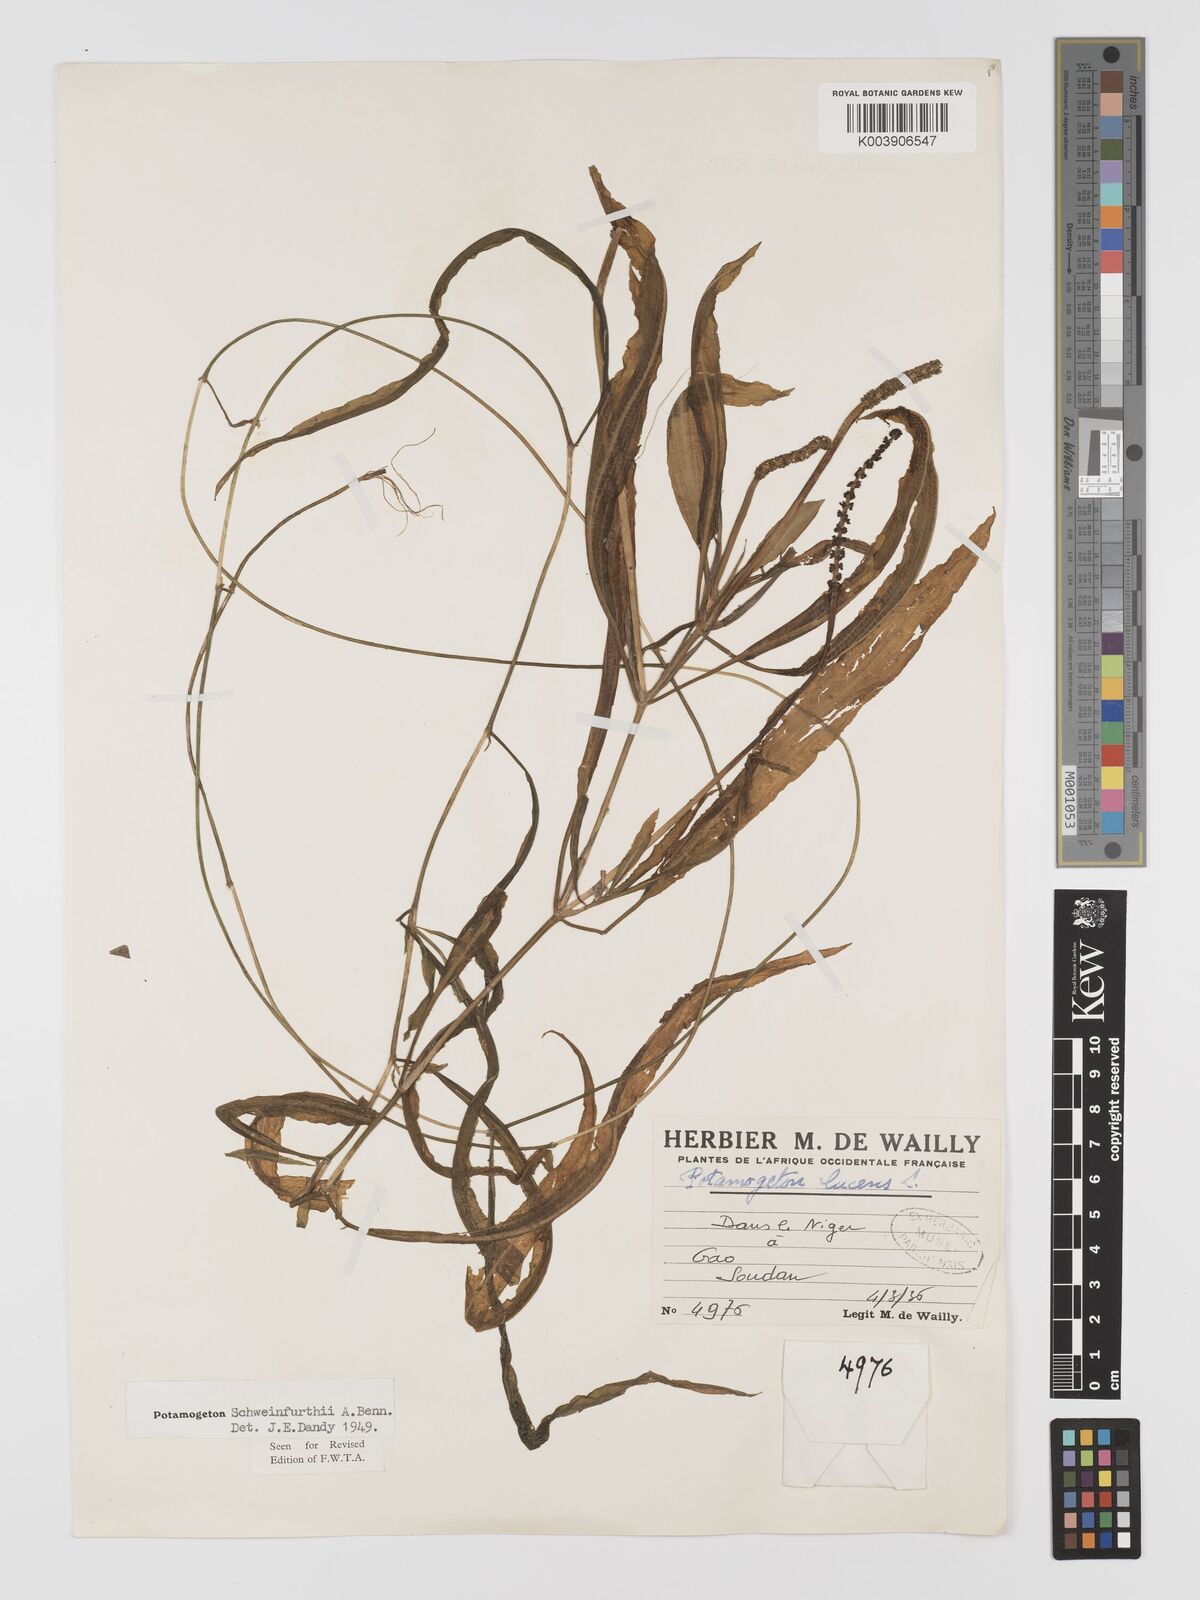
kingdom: Plantae
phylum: Tracheophyta
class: Liliopsida
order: Alismatales
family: Potamogetonaceae
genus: Potamogeton
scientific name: Potamogeton schweinfurthii
